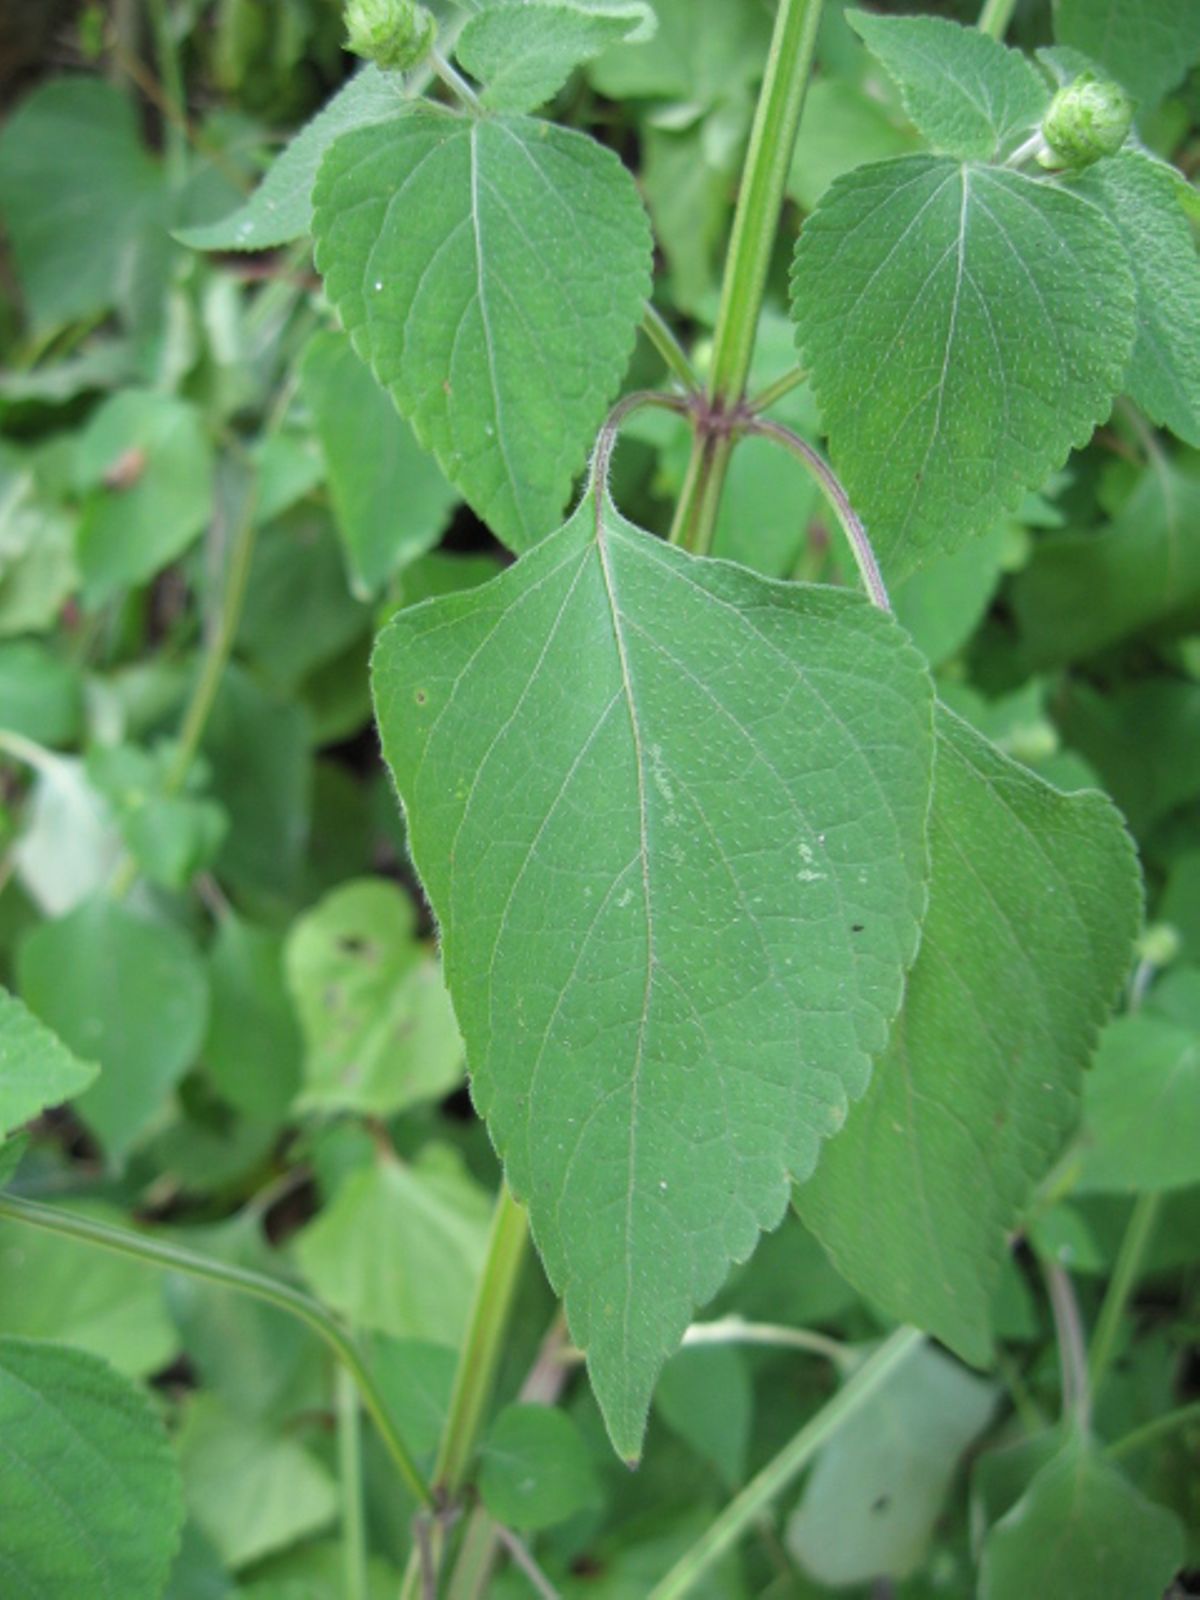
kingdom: Plantae
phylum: Tracheophyta
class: Magnoliopsida
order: Lamiales
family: Lamiaceae
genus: Salvia
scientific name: Salvia lasiocephala
